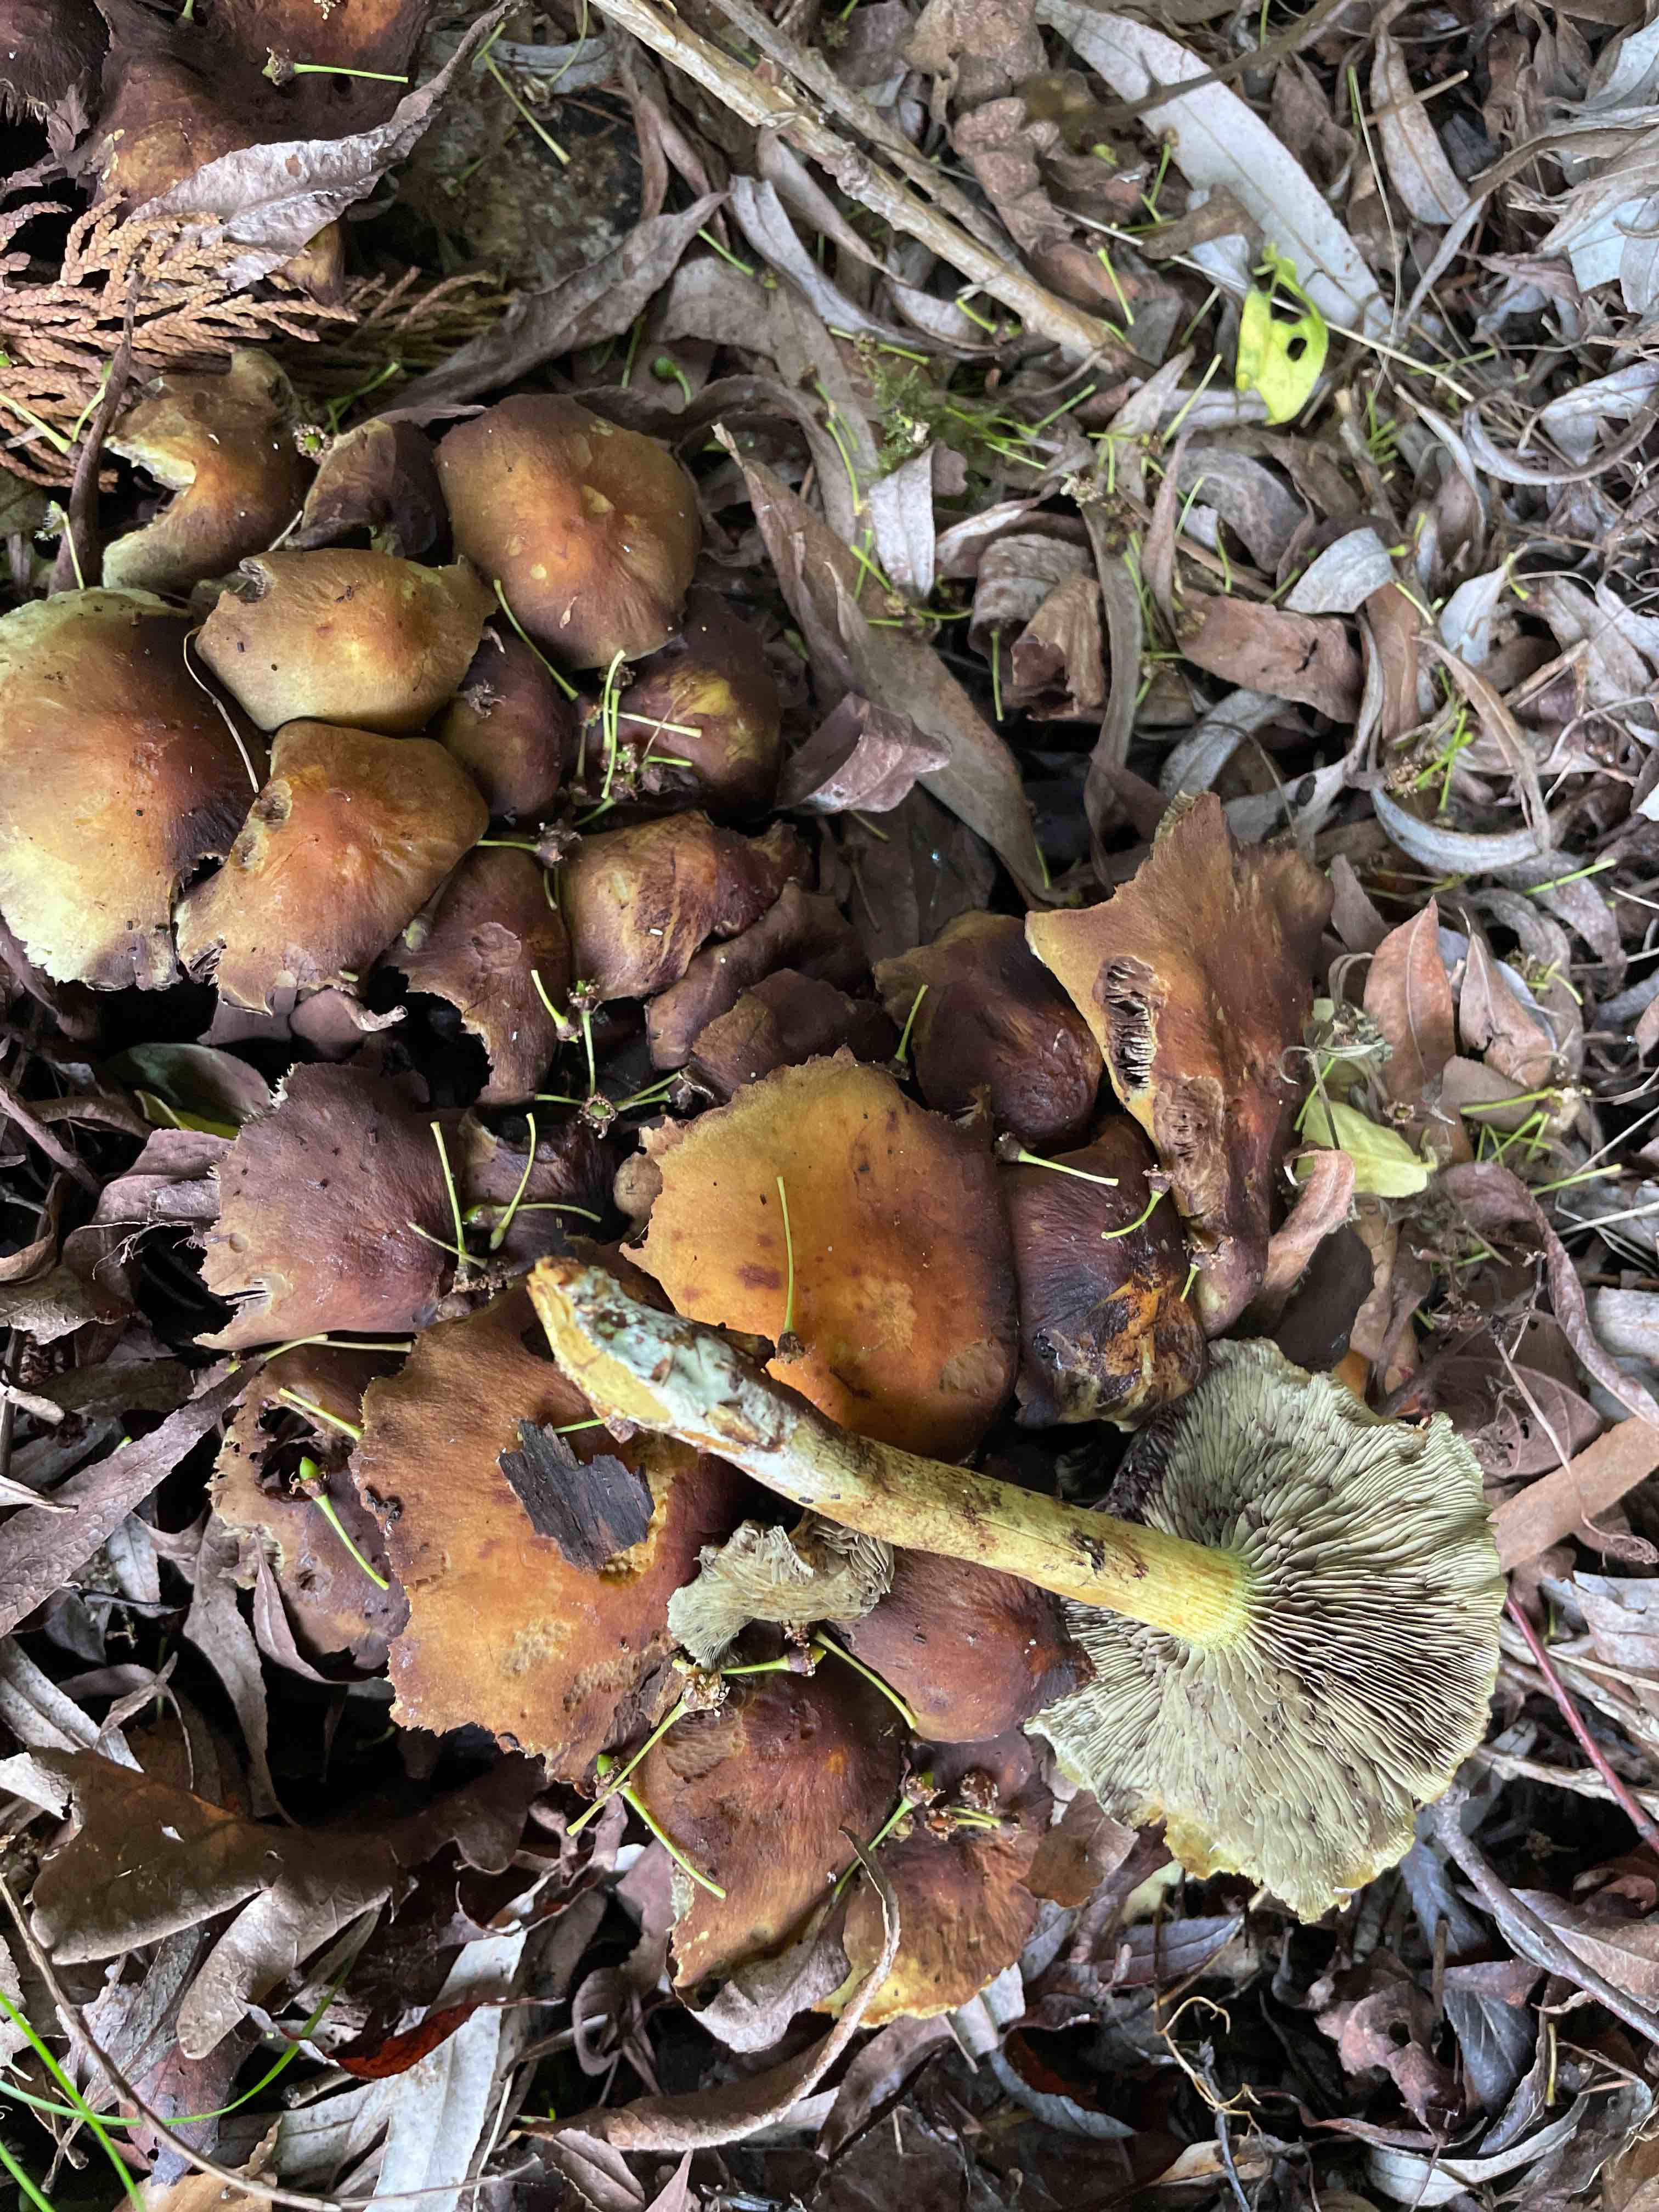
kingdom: Fungi
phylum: Basidiomycota
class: Agaricomycetes
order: Agaricales
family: Strophariaceae
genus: Hypholoma
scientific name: Hypholoma fasciculare
